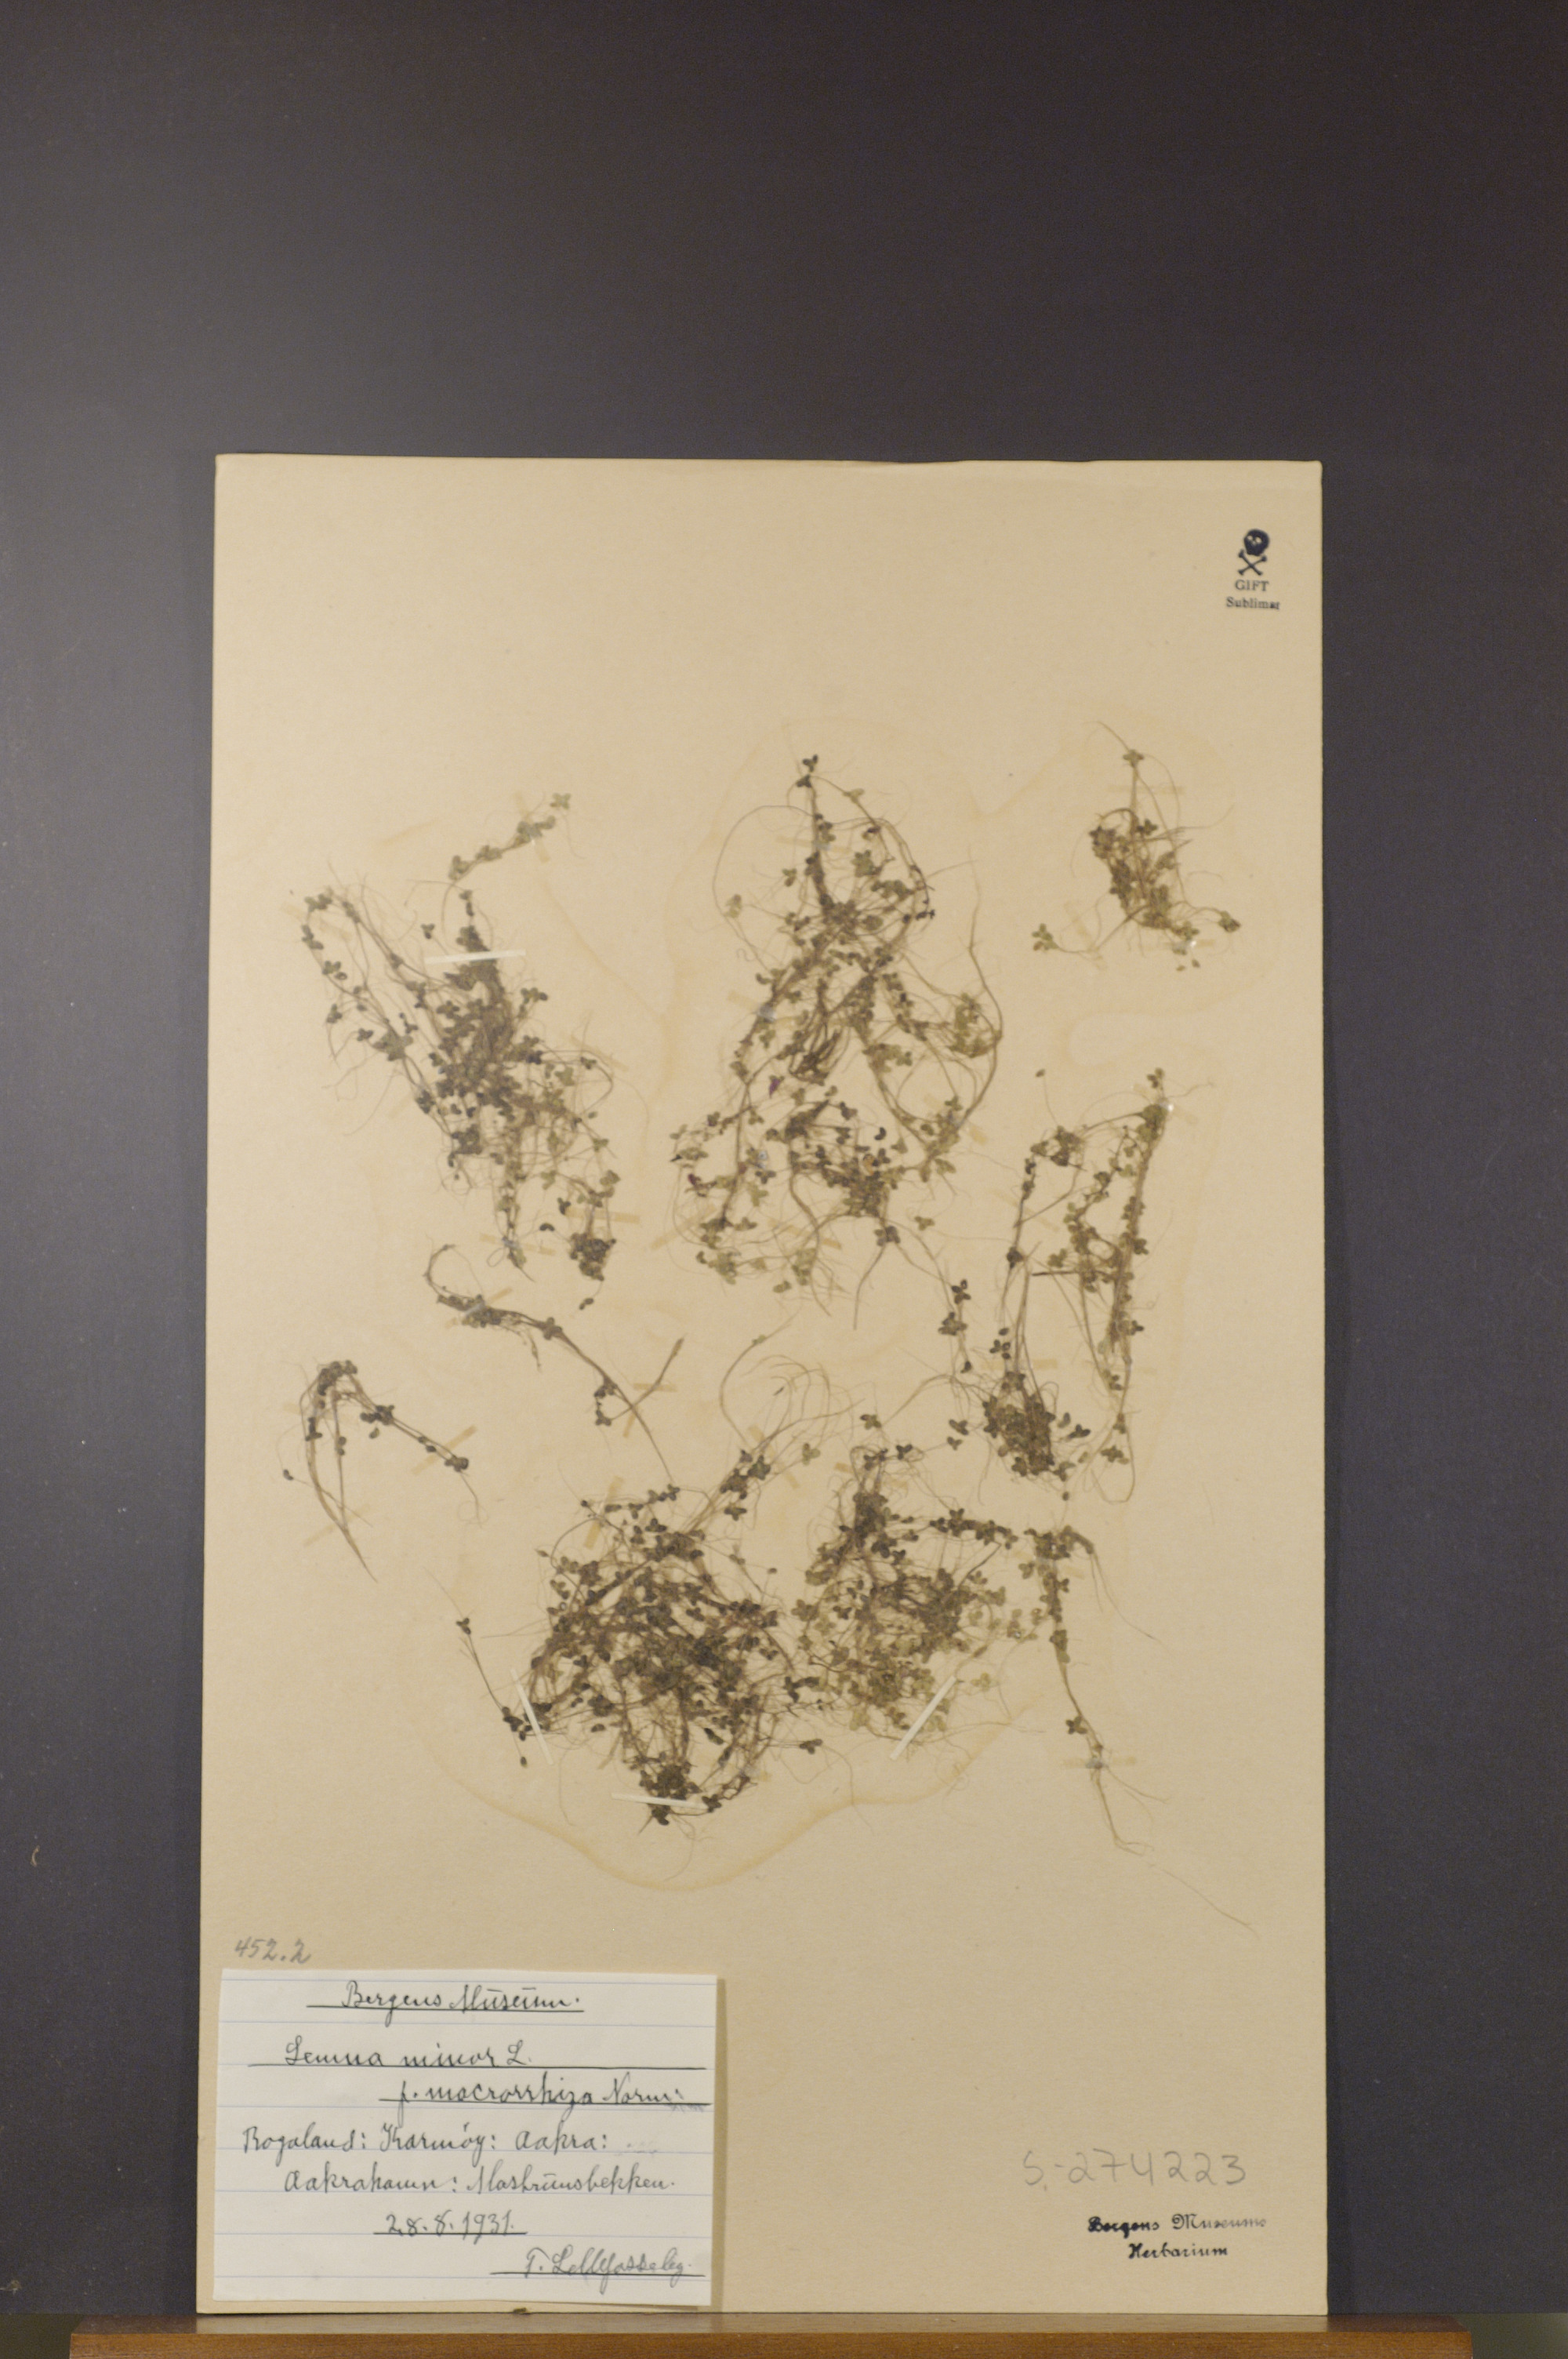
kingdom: Plantae
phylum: Tracheophyta
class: Liliopsida
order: Alismatales
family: Araceae
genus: Lemna
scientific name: Lemna minor
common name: Common duckweed
